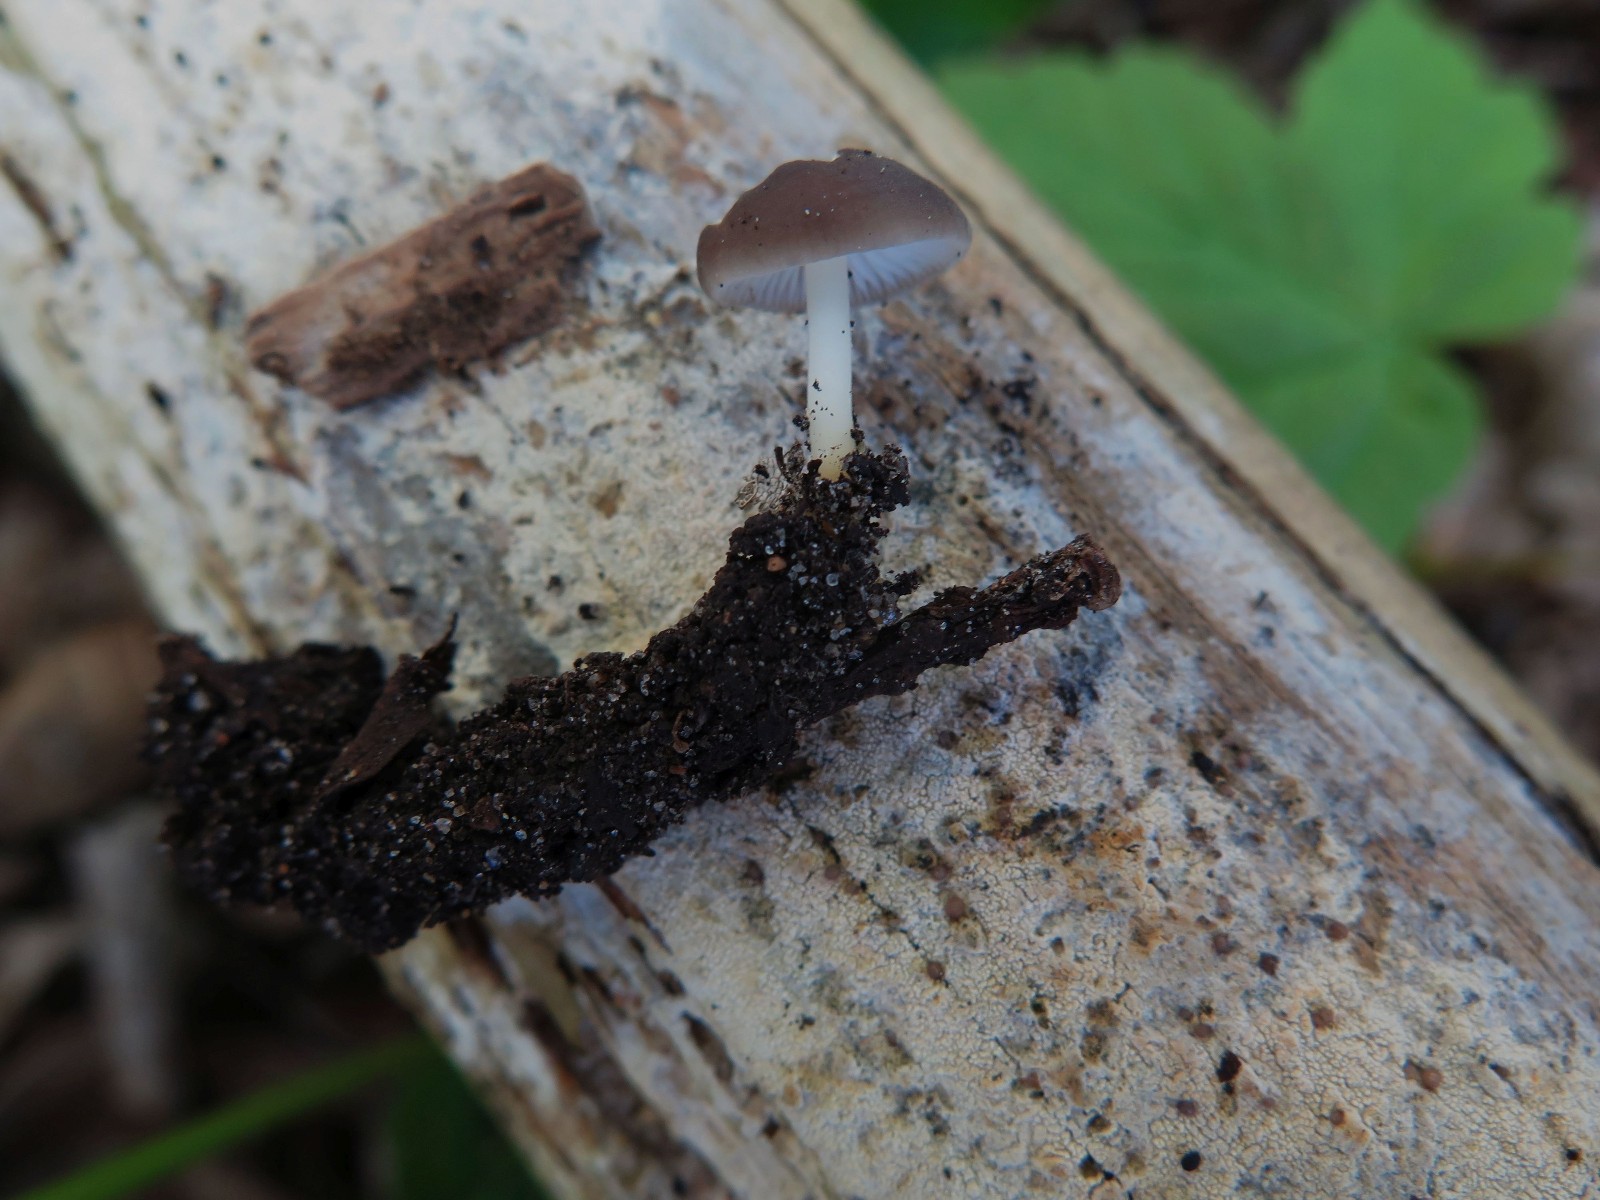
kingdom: Fungi
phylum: Basidiomycota
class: Agaricomycetes
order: Agaricales
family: Physalacriaceae
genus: Strobilurus
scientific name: Strobilurus esculentus
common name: gran-koglehat
